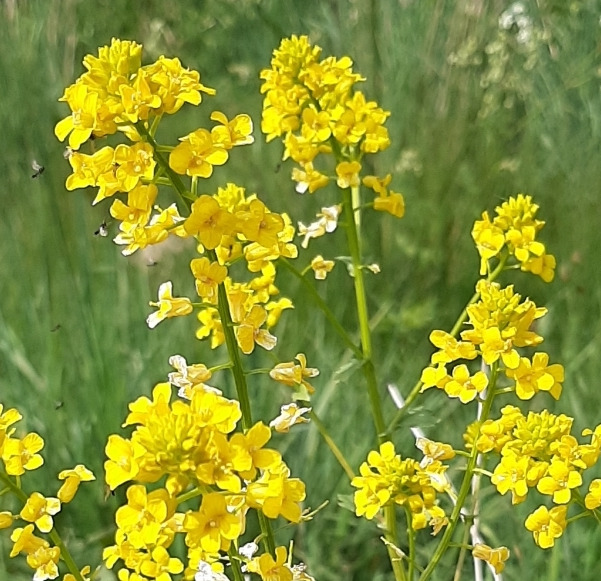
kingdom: Plantae
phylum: Tracheophyta
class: Magnoliopsida
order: Brassicales
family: Brassicaceae
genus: Barbarea
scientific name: Barbarea vulgaris
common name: Udspærret vinterkarse
